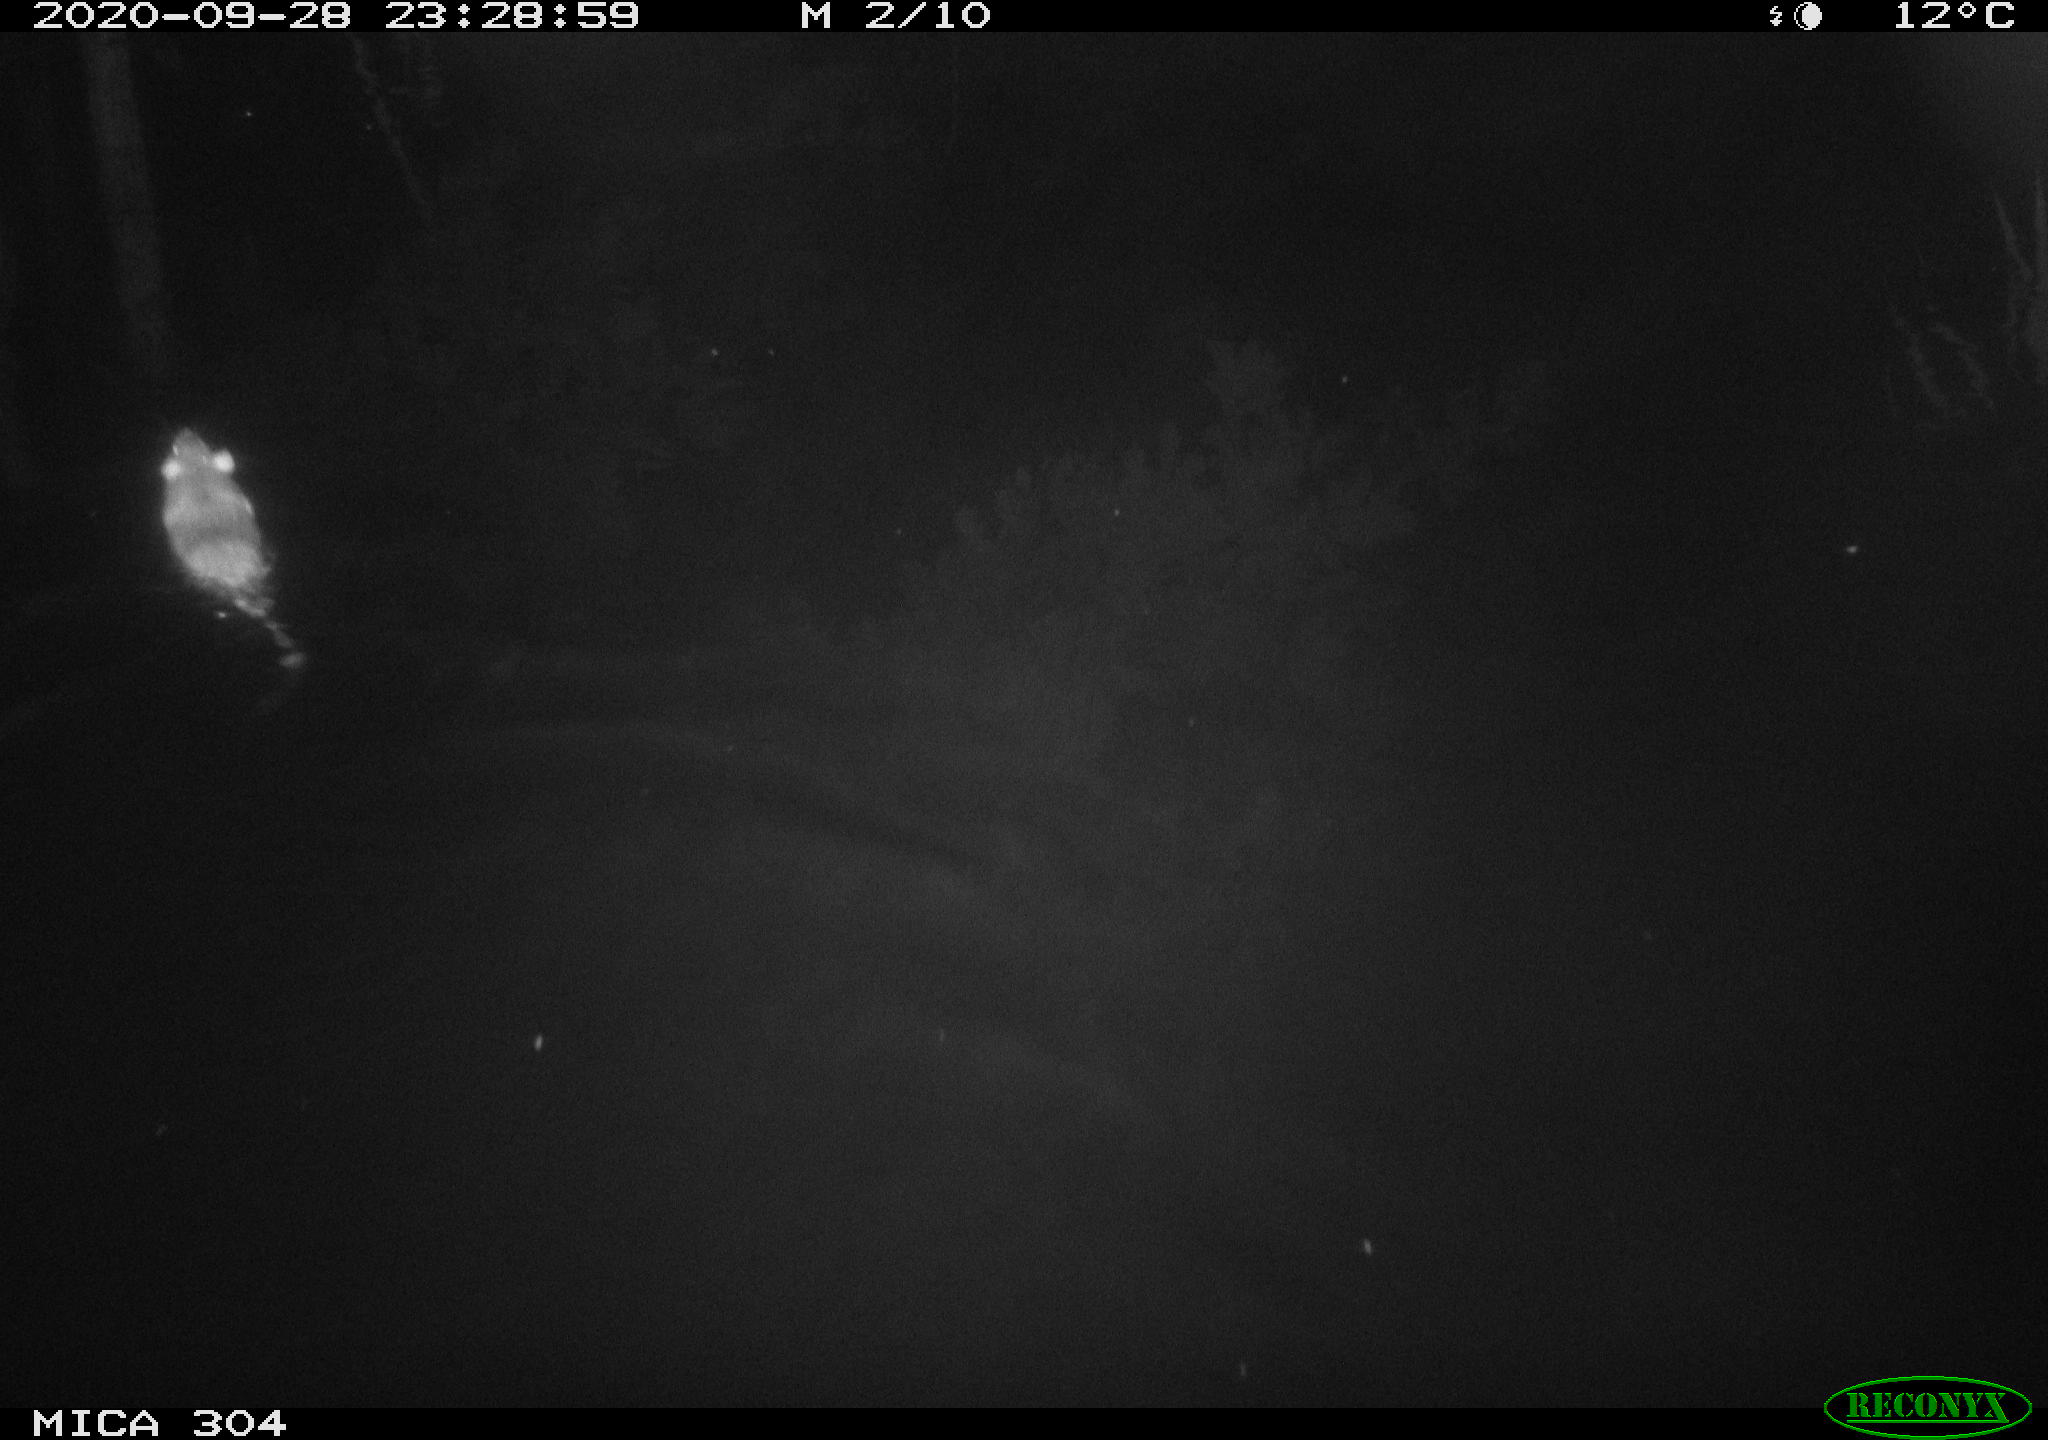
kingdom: Animalia
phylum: Chordata
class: Mammalia
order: Rodentia
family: Muridae
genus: Rattus
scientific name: Rattus norvegicus
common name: Brown rat
